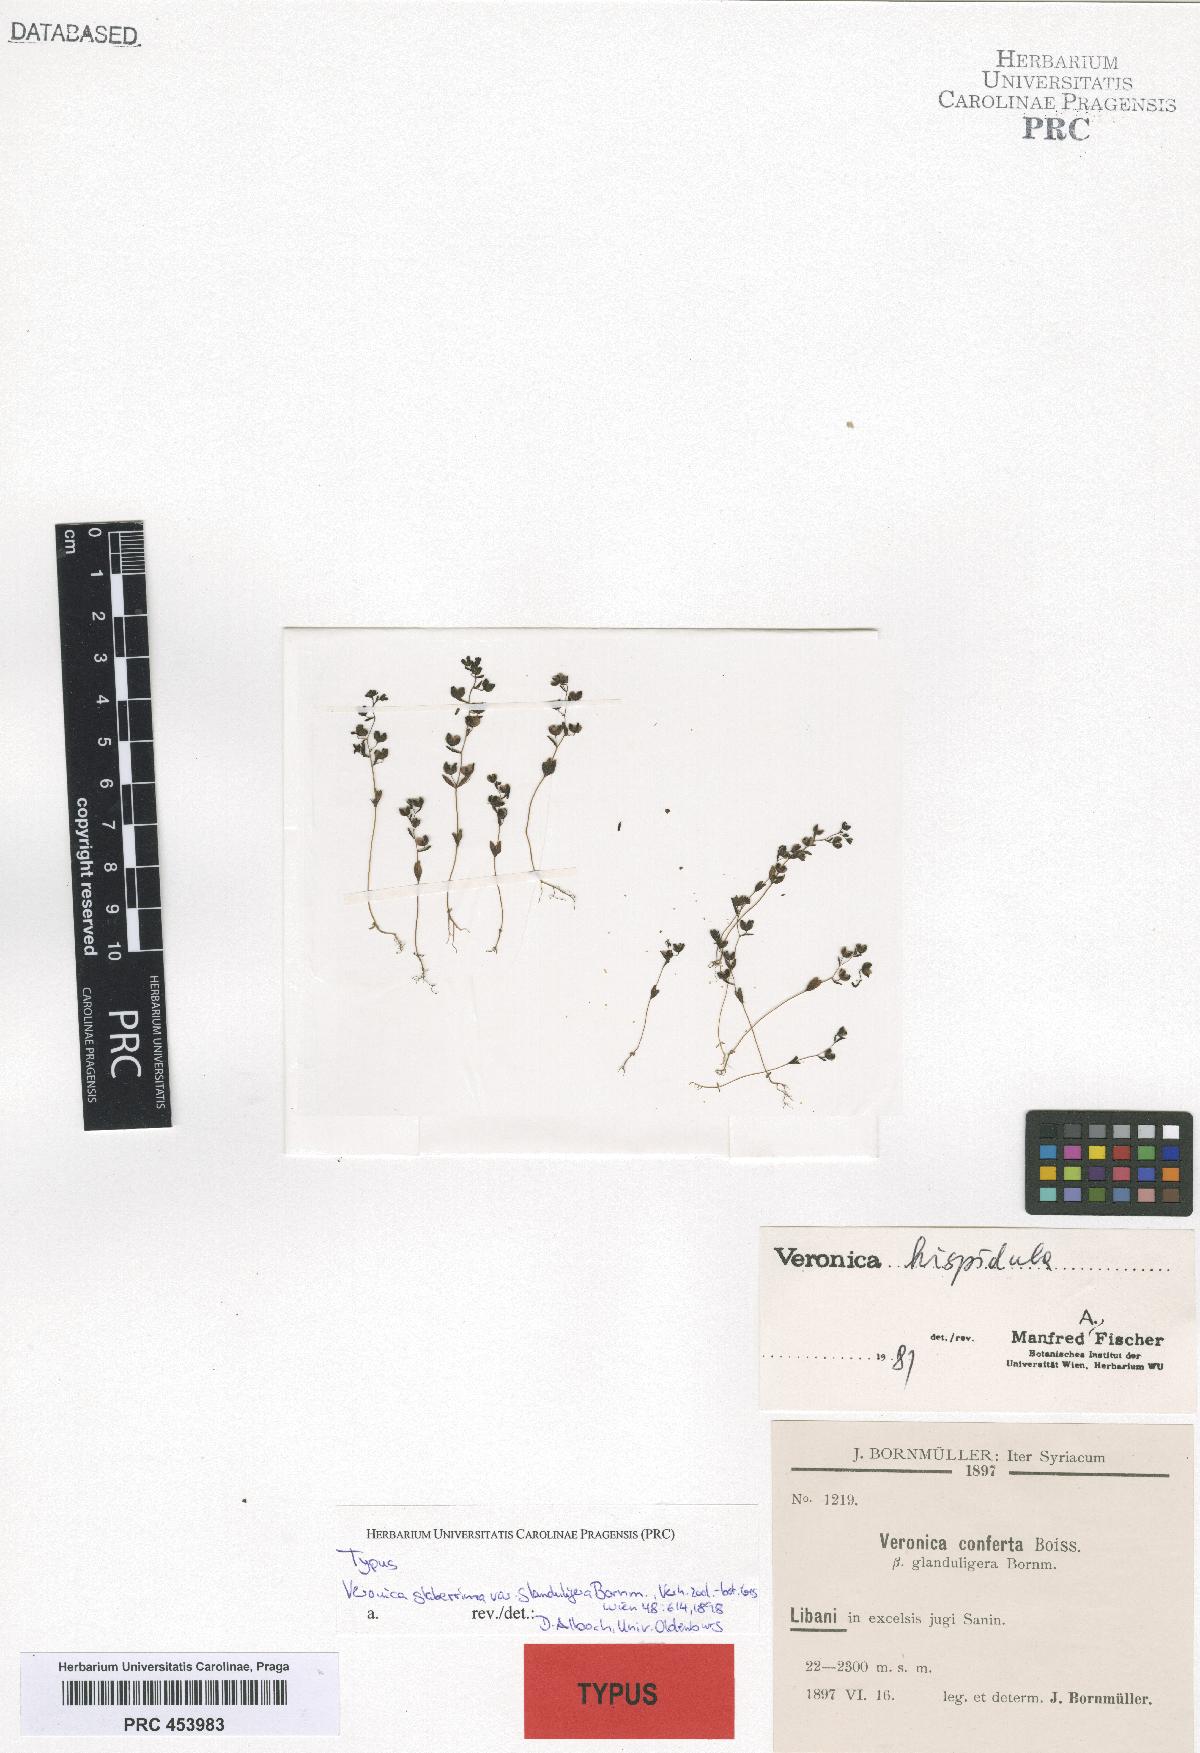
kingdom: Plantae
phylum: Tracheophyta
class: Magnoliopsida
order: Lamiales
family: Plantaginaceae
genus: Veronica
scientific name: Veronica hispidula
